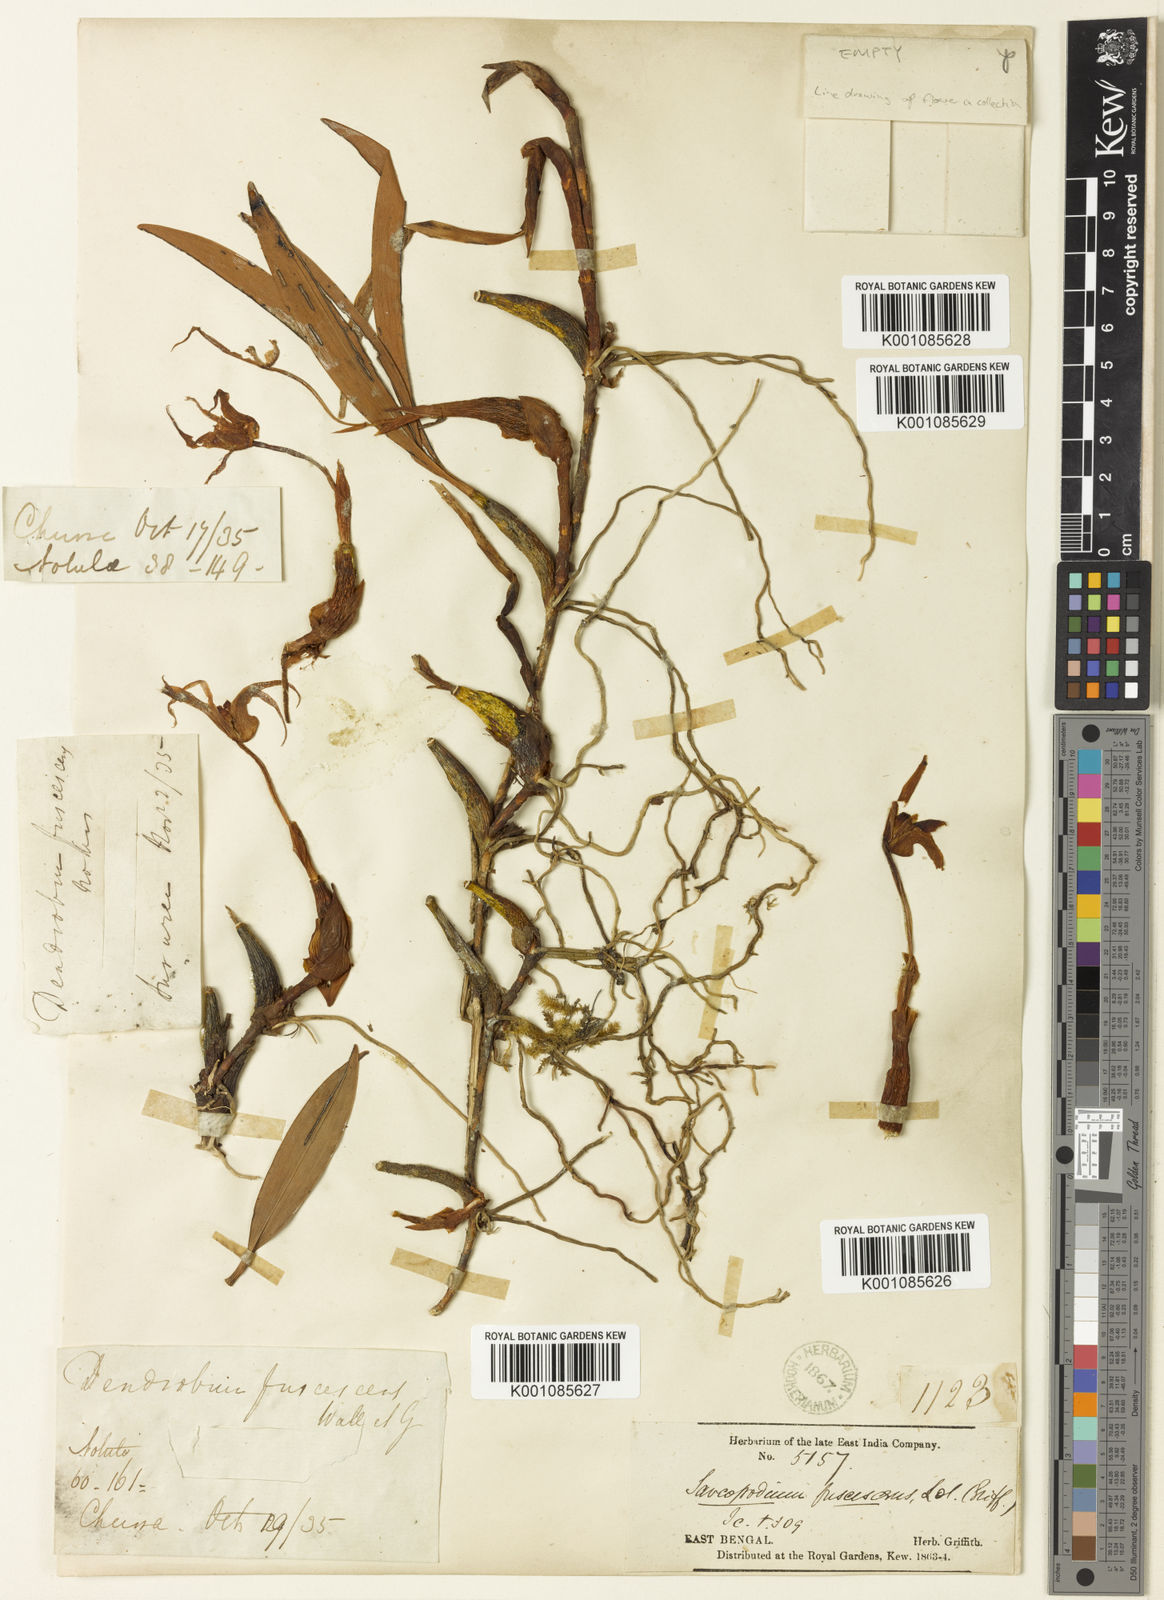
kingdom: Plantae
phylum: Tracheophyta
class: Liliopsida
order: Asparagales
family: Orchidaceae
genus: Dendrobium
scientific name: Dendrobium fuscescens
